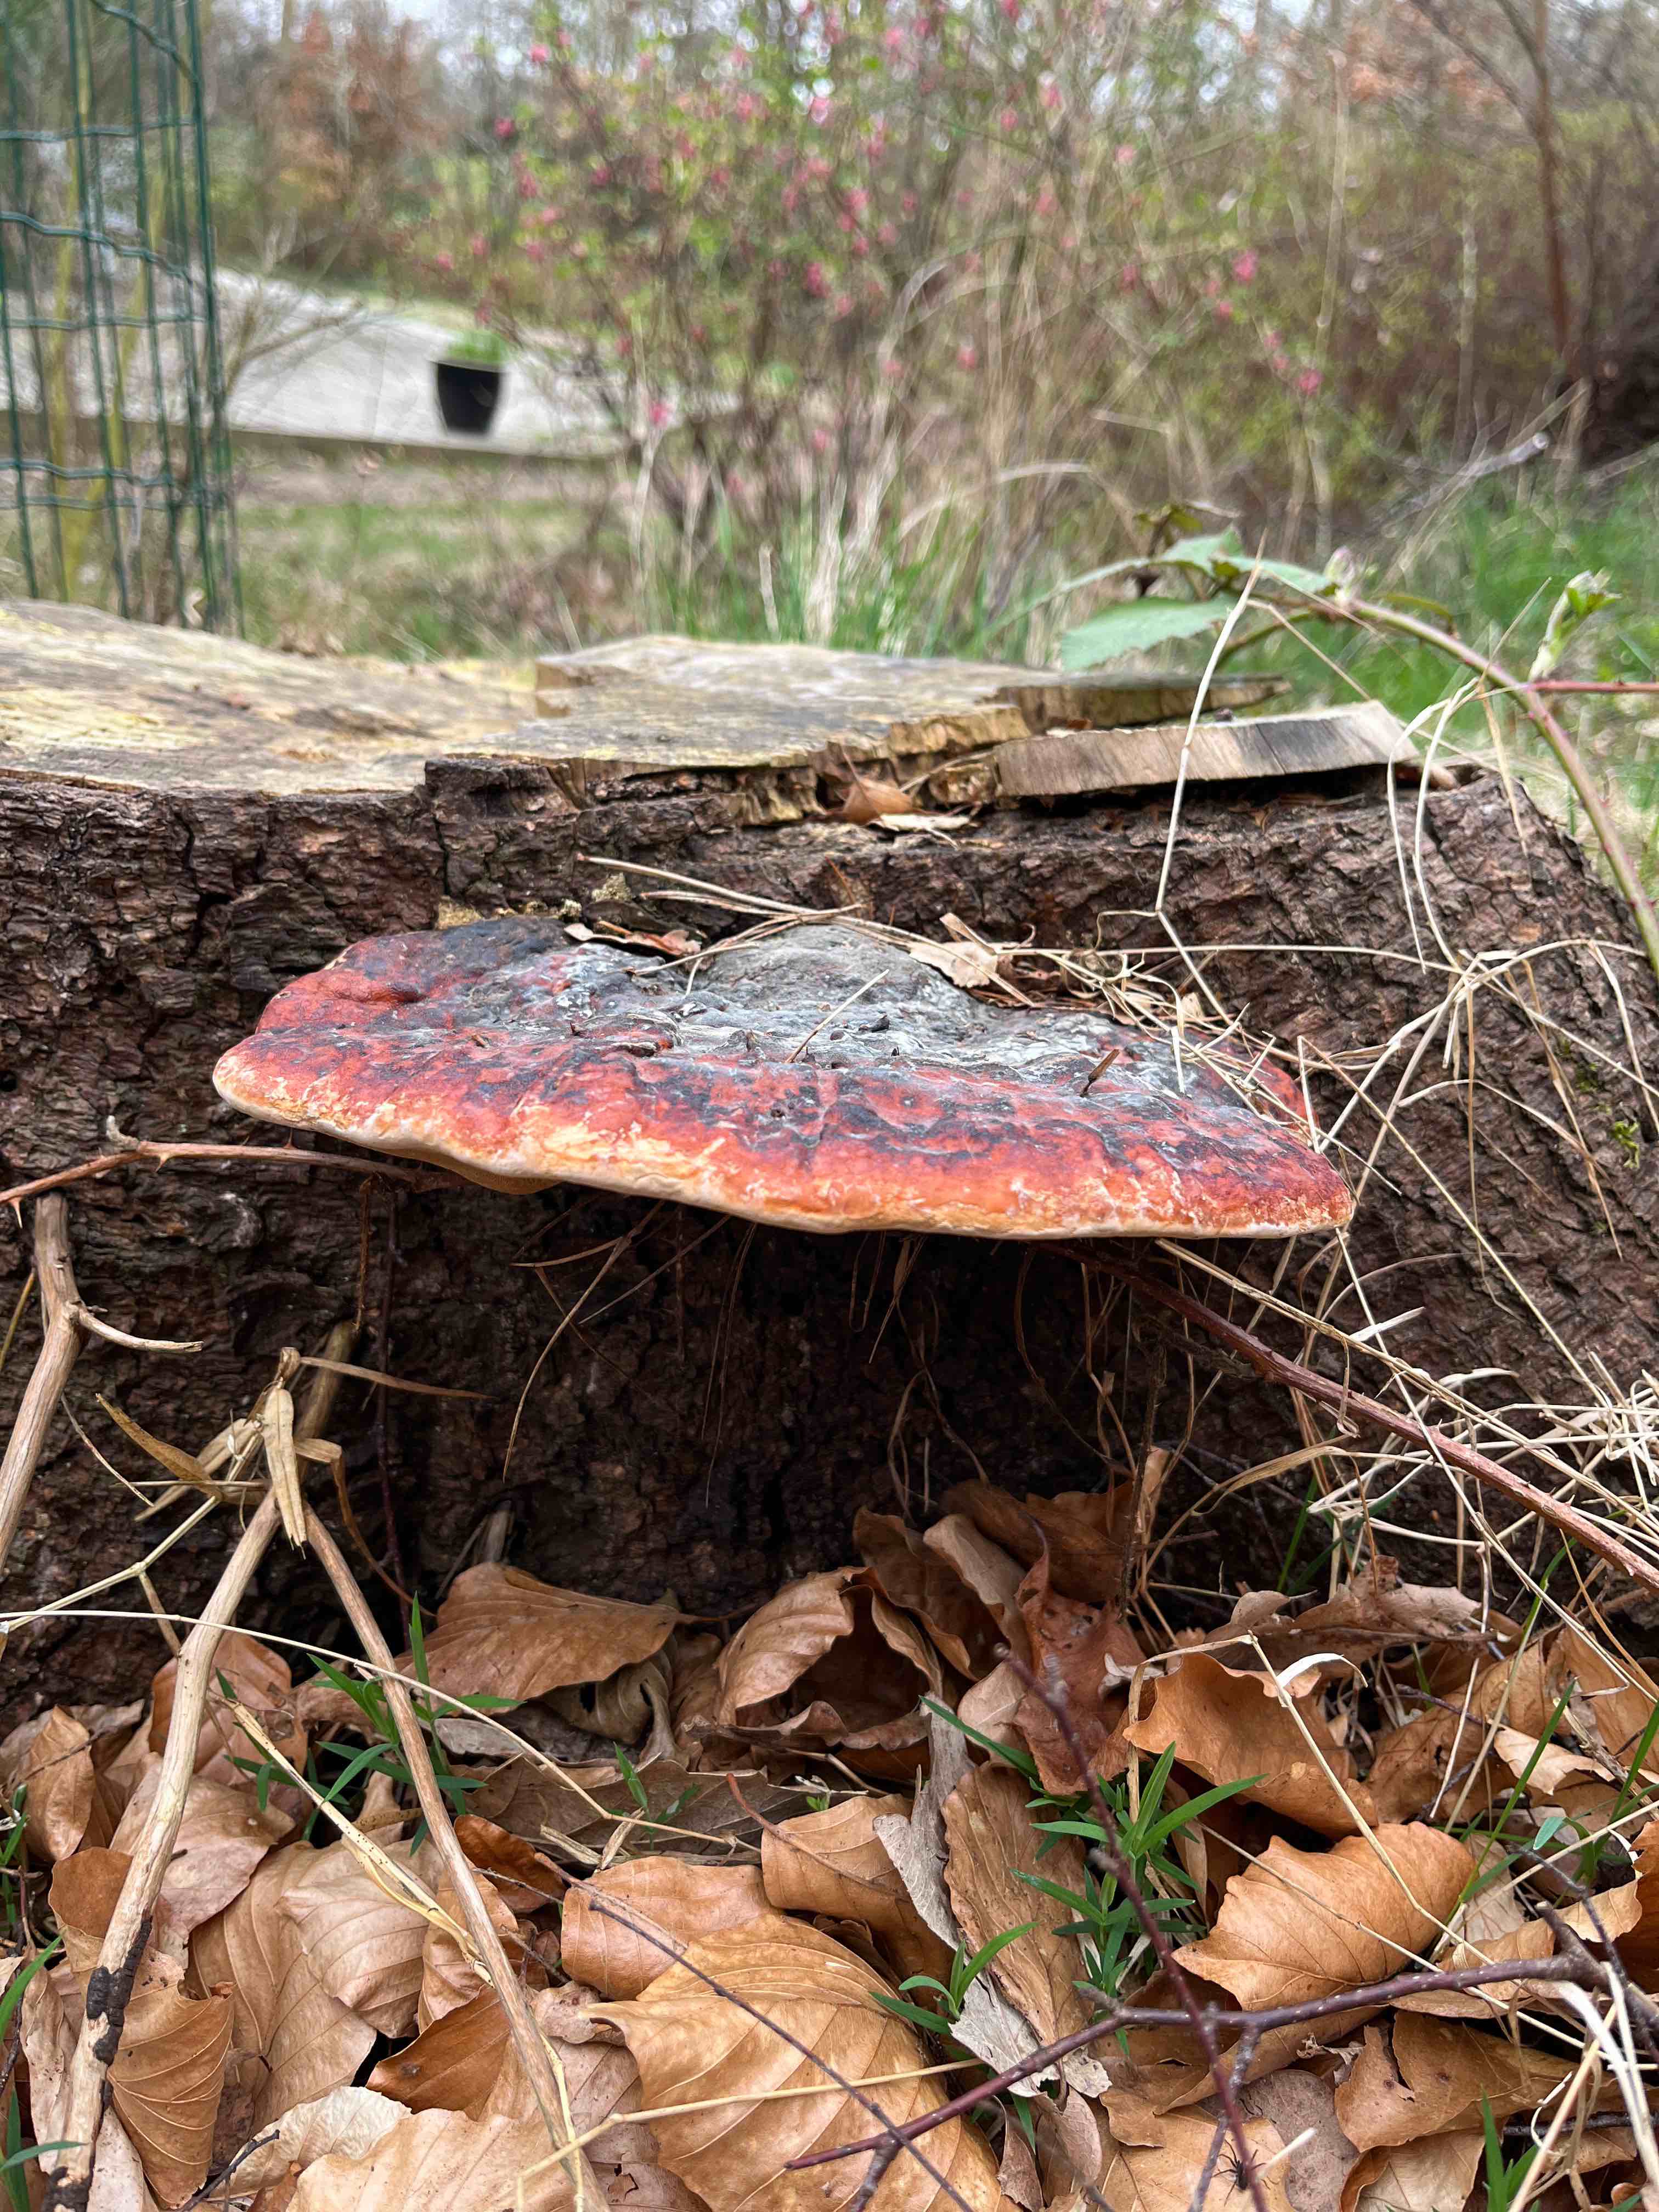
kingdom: Fungi
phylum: Basidiomycota
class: Agaricomycetes
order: Polyporales
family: Fomitopsidaceae
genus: Fomitopsis
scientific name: Fomitopsis pinicola
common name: randbæltet hovporesvamp
